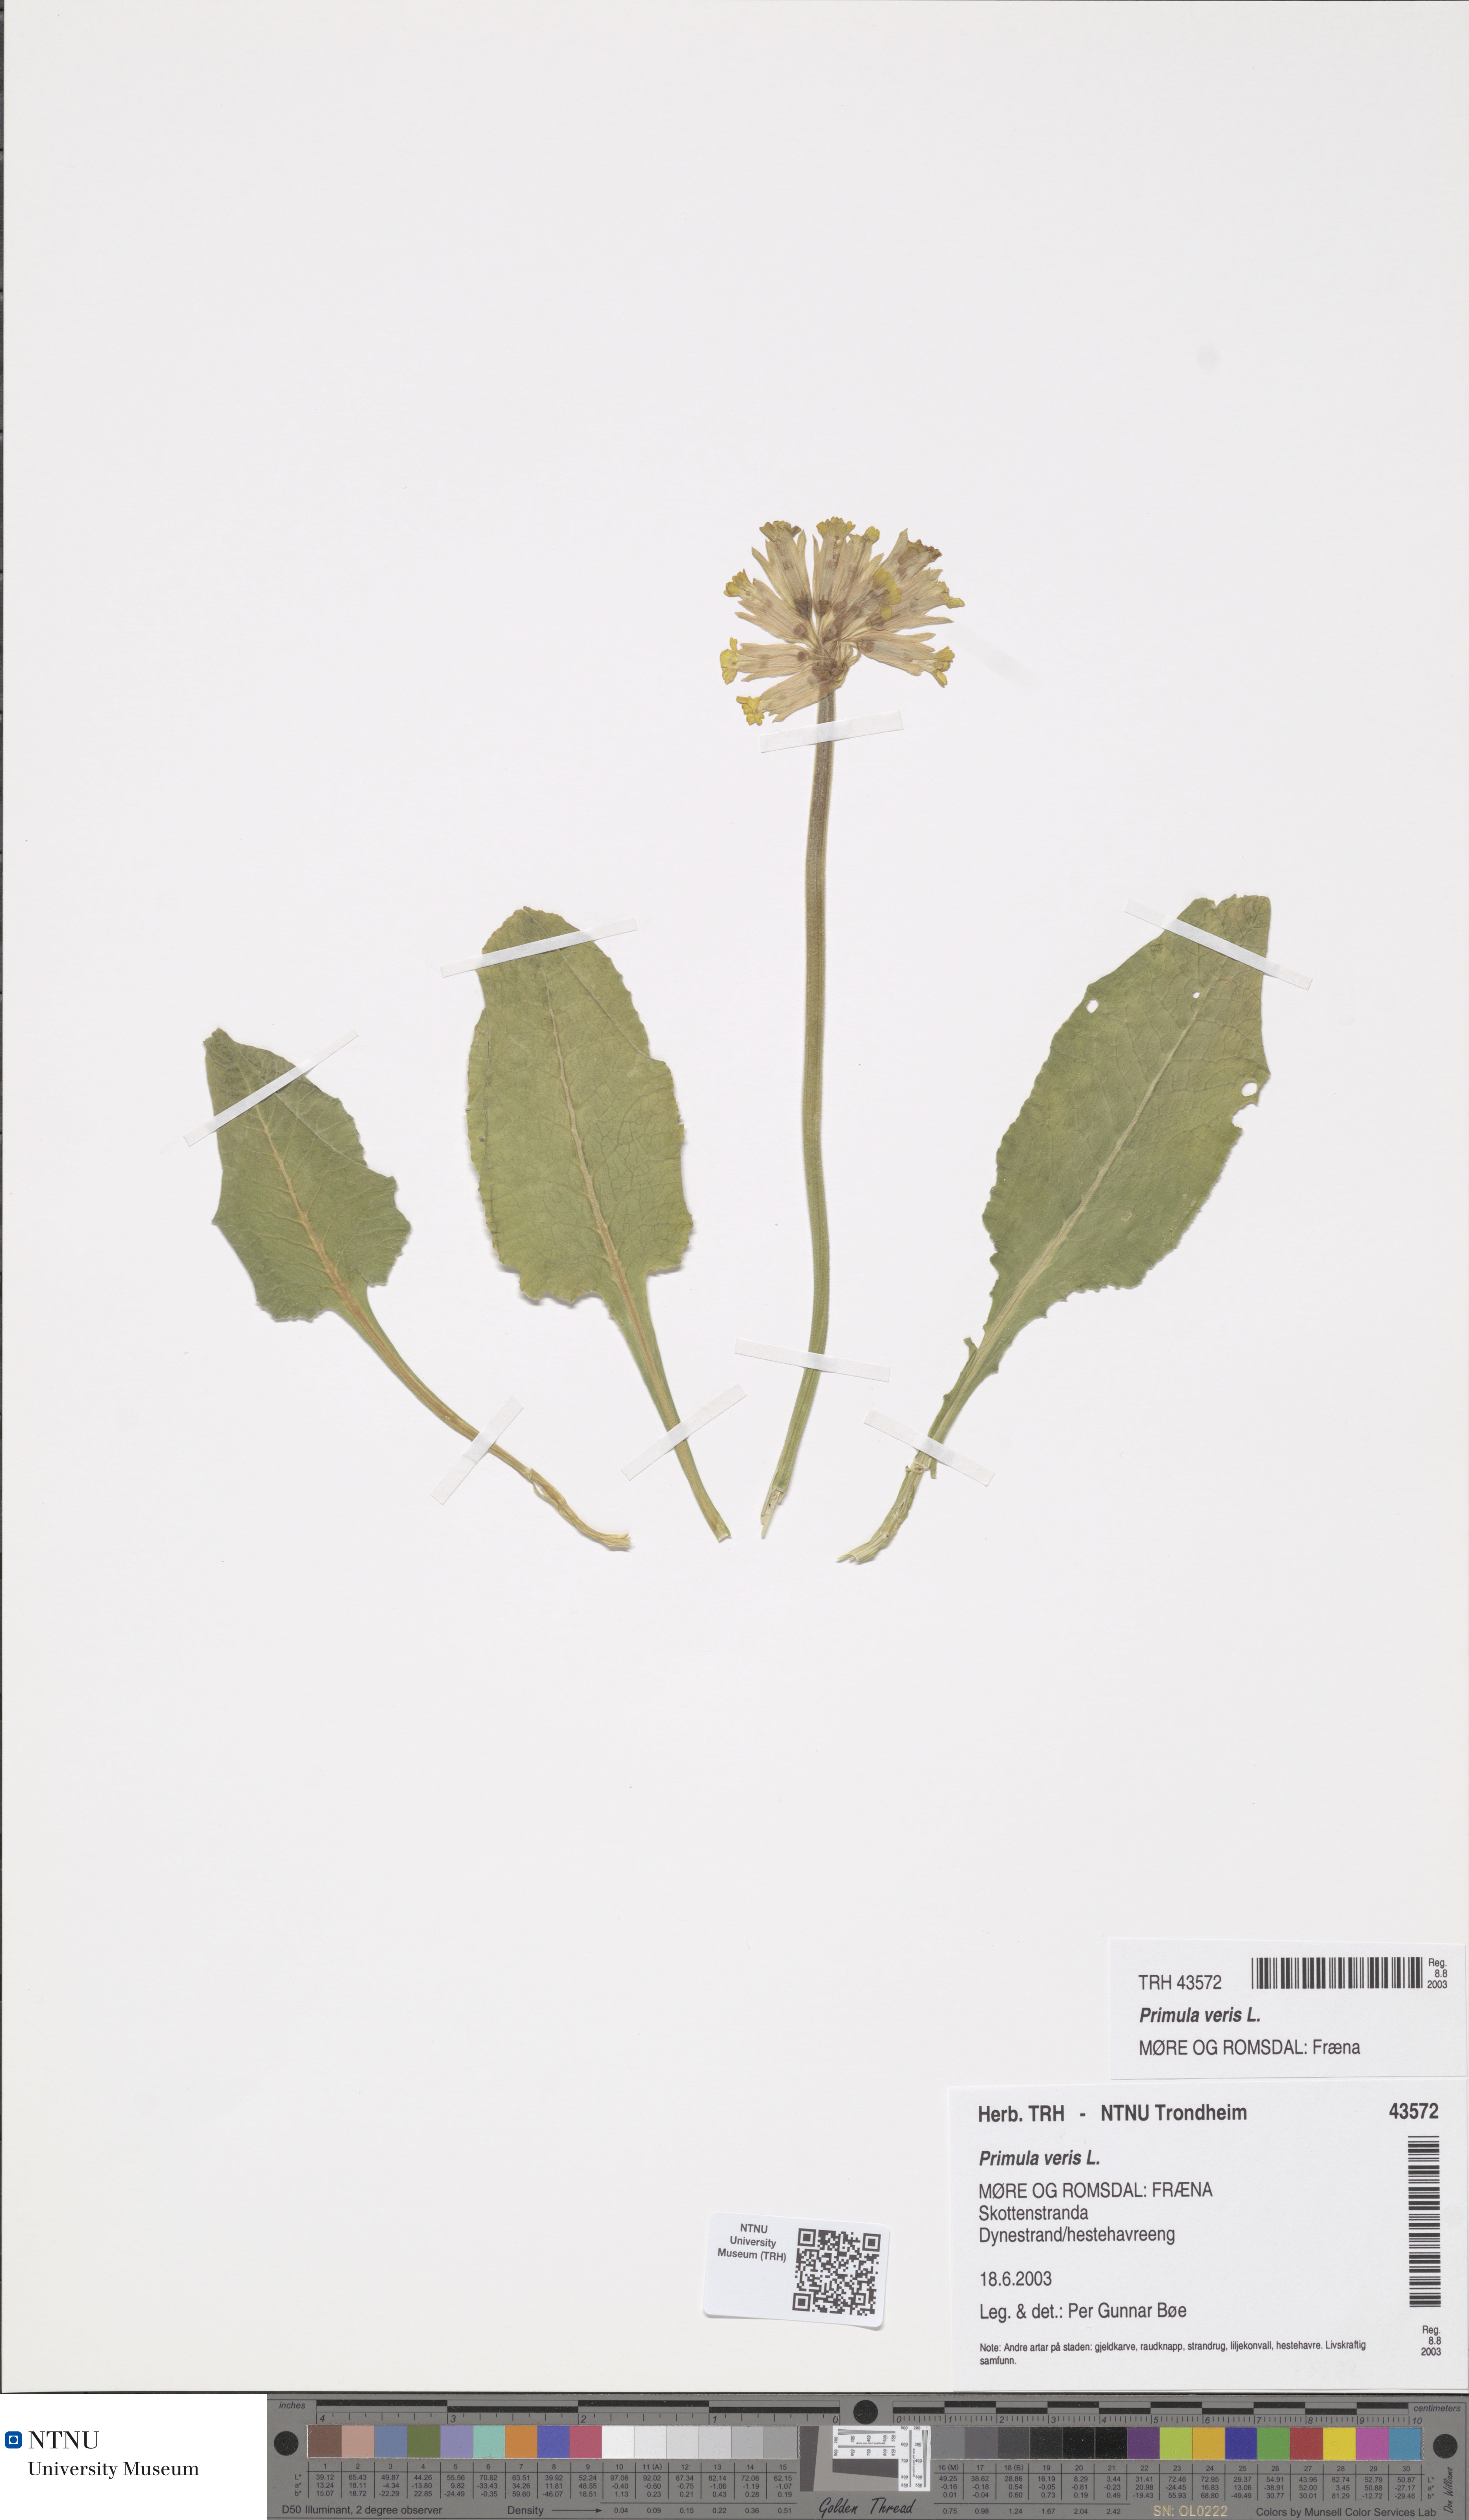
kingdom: Plantae
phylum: Tracheophyta
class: Magnoliopsida
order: Ericales
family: Primulaceae
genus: Primula
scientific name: Primula veris
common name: Cowslip
